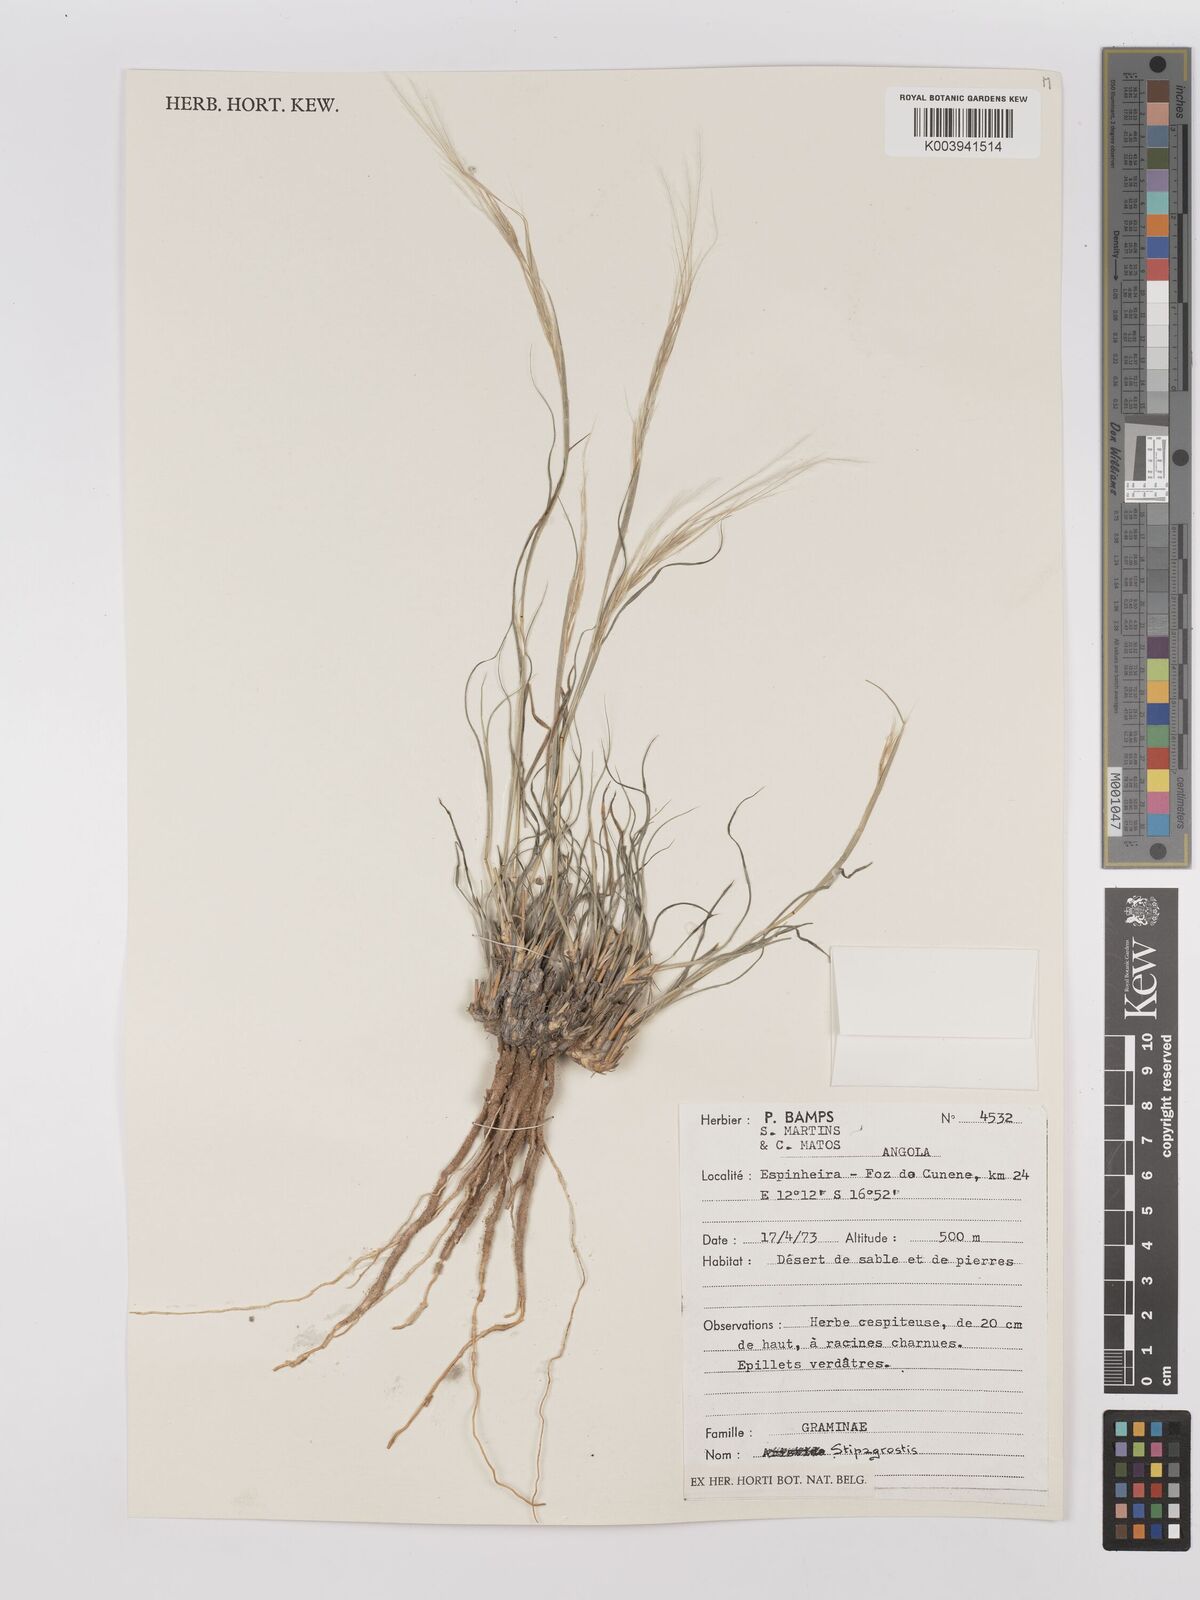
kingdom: Plantae
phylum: Tracheophyta
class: Liliopsida
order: Poales
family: Poaceae
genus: Stipagrostis
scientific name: Stipagrostis
